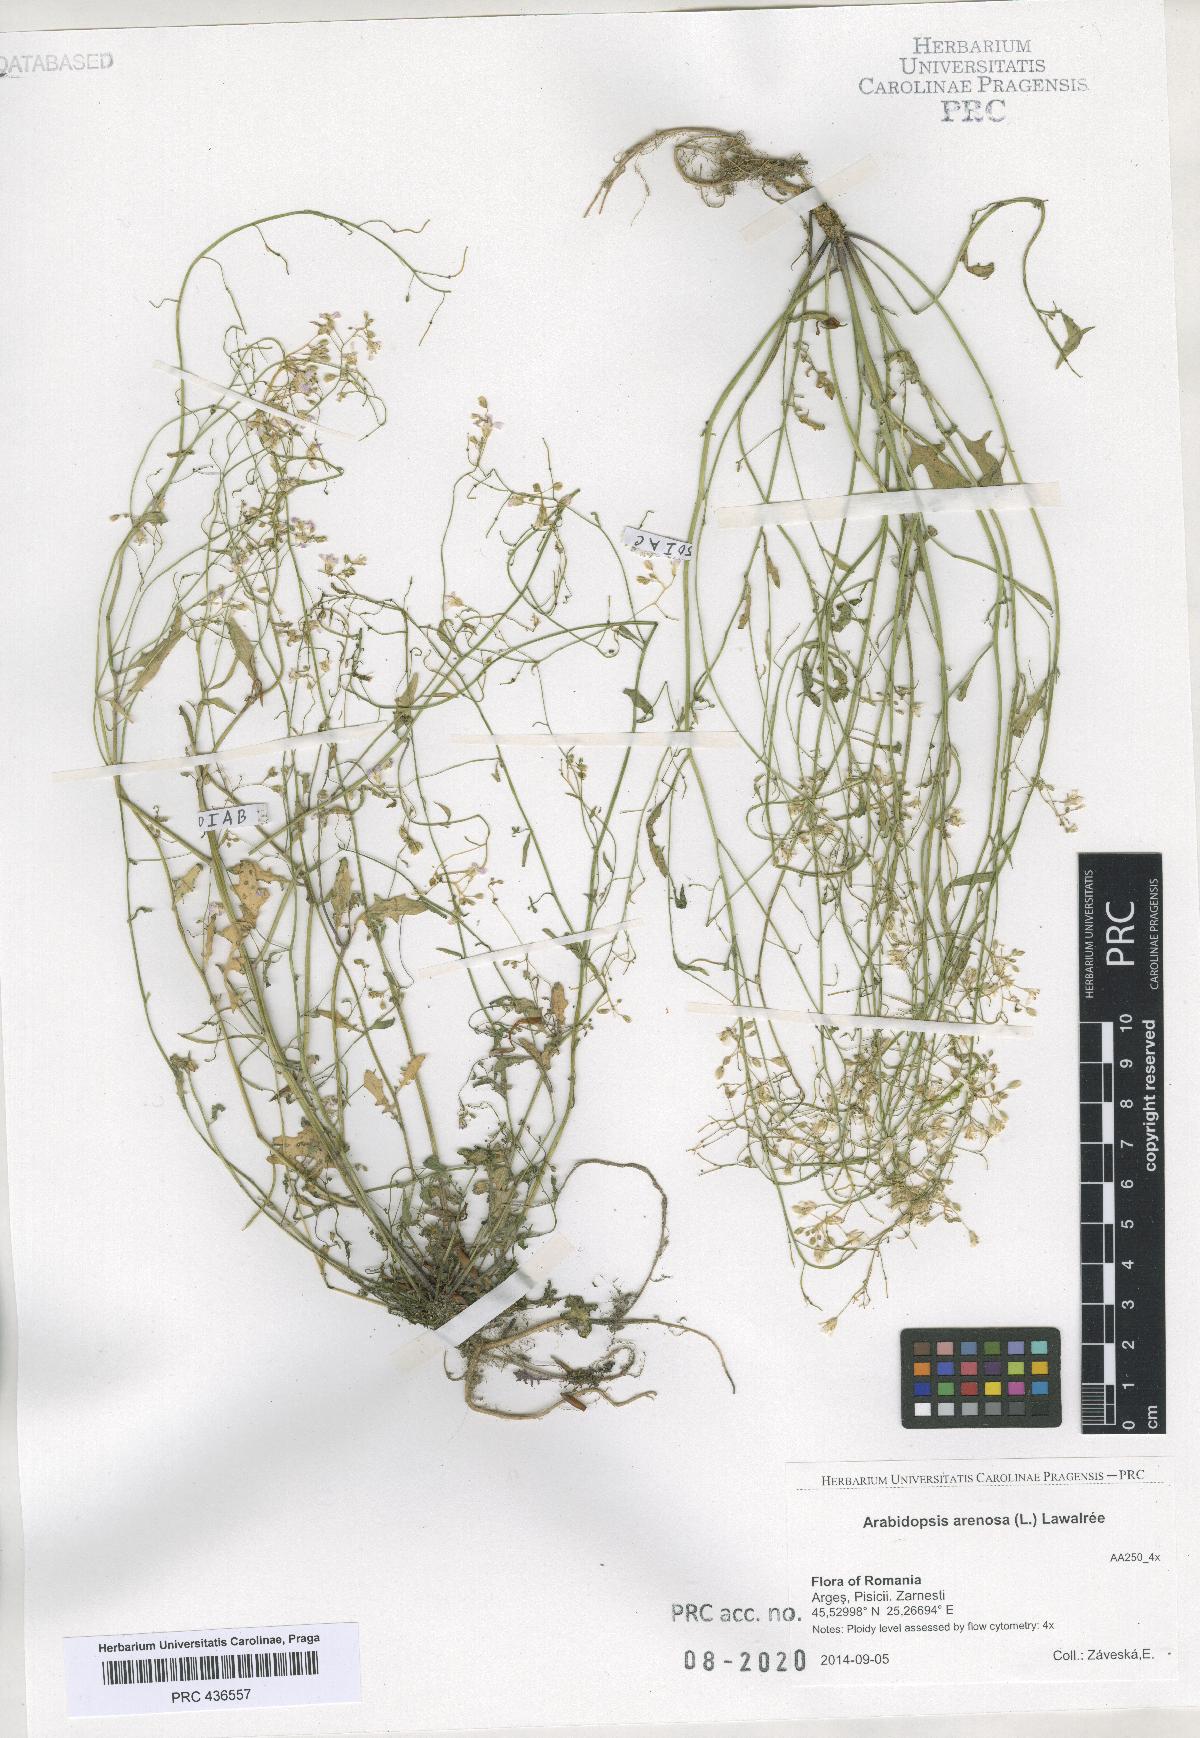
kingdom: Plantae
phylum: Tracheophyta
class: Magnoliopsida
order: Brassicales
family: Brassicaceae
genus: Arabidopsis
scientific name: Arabidopsis arenosa
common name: Sand rock-cress
